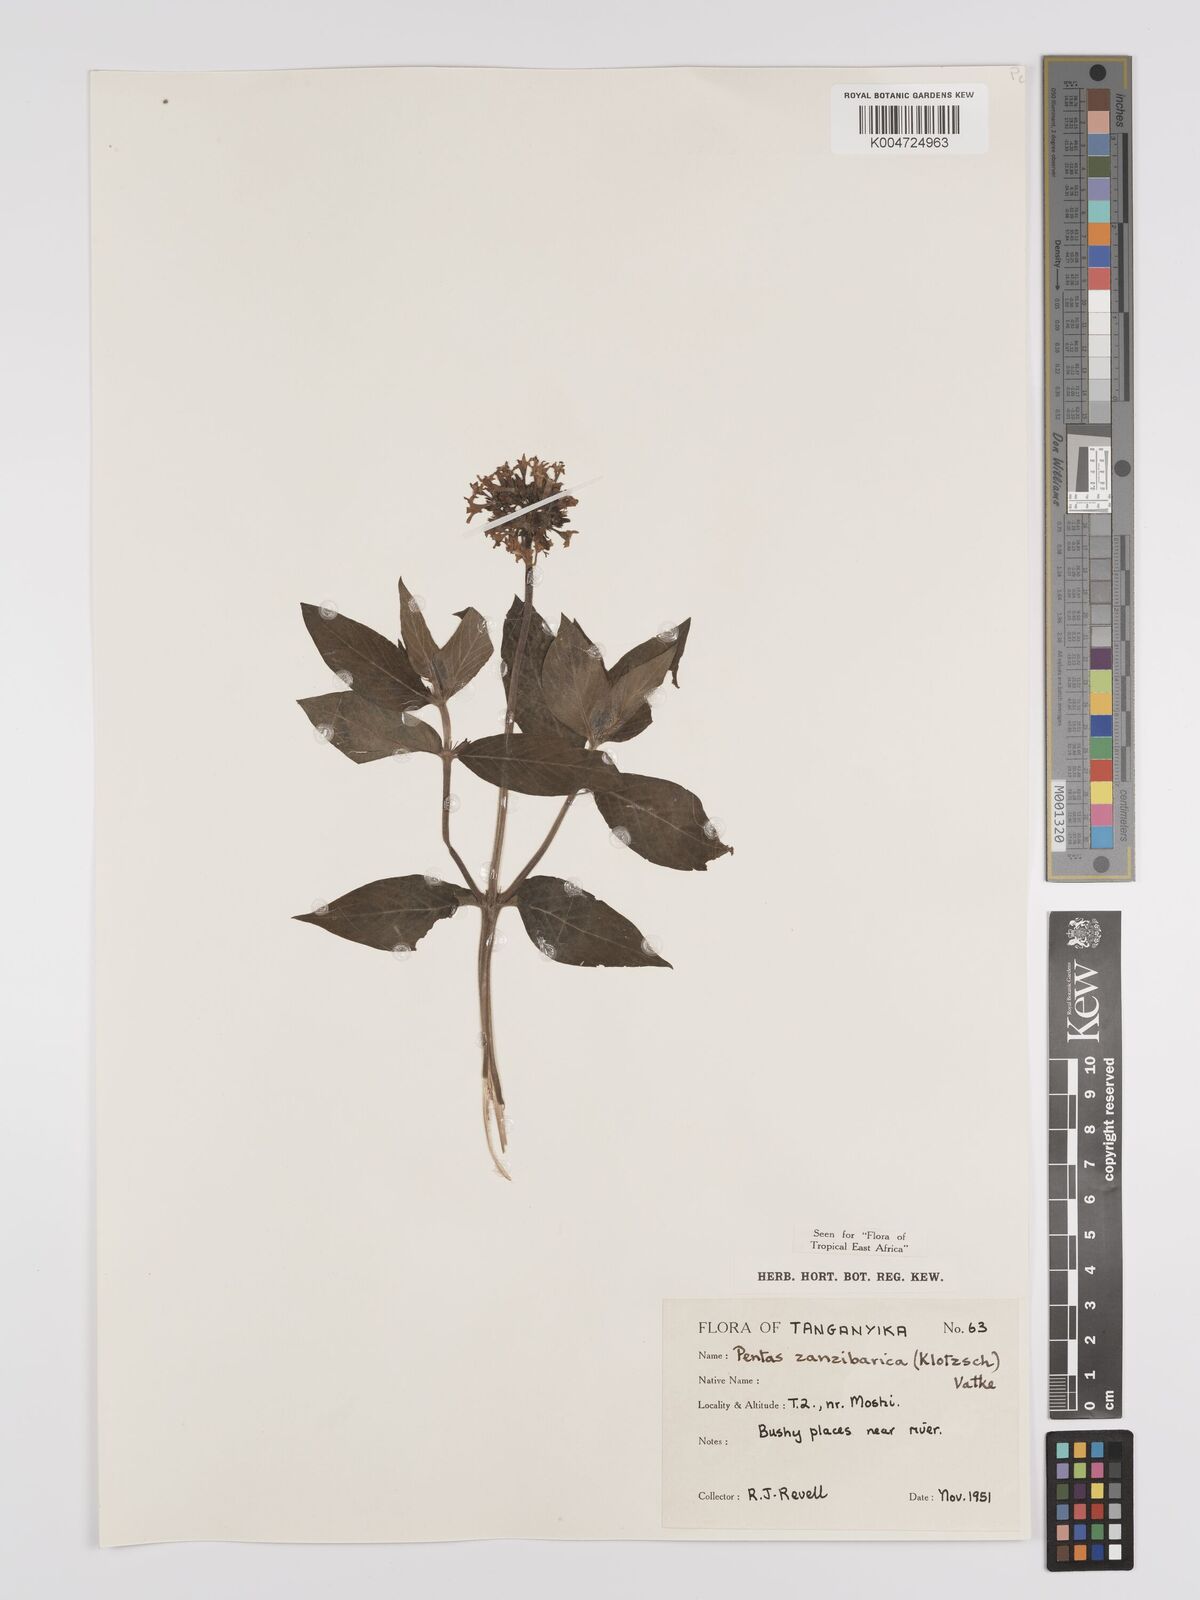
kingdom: Plantae
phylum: Tracheophyta
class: Magnoliopsida
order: Gentianales
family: Rubiaceae
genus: Pentas
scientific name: Pentas zanzibarica
